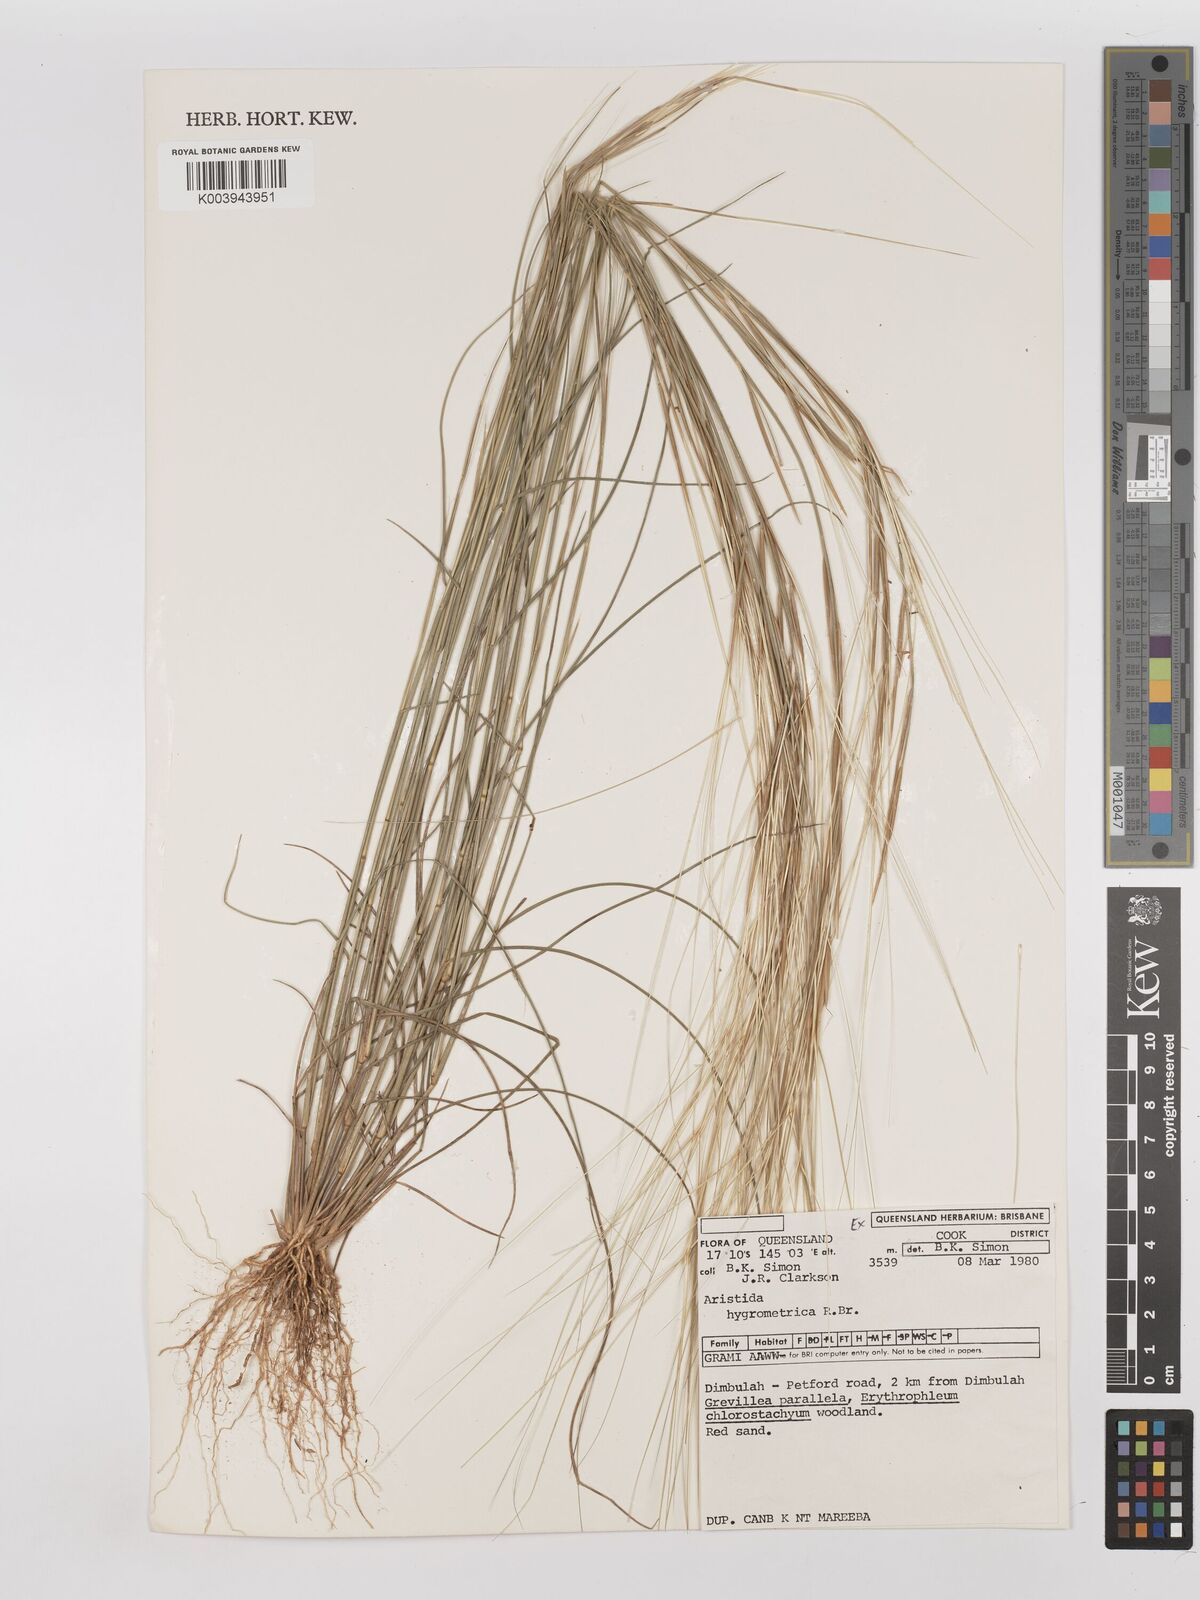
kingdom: Plantae
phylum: Tracheophyta
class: Liliopsida
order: Poales
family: Poaceae
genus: Aristida
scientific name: Aristida hygrometrica
